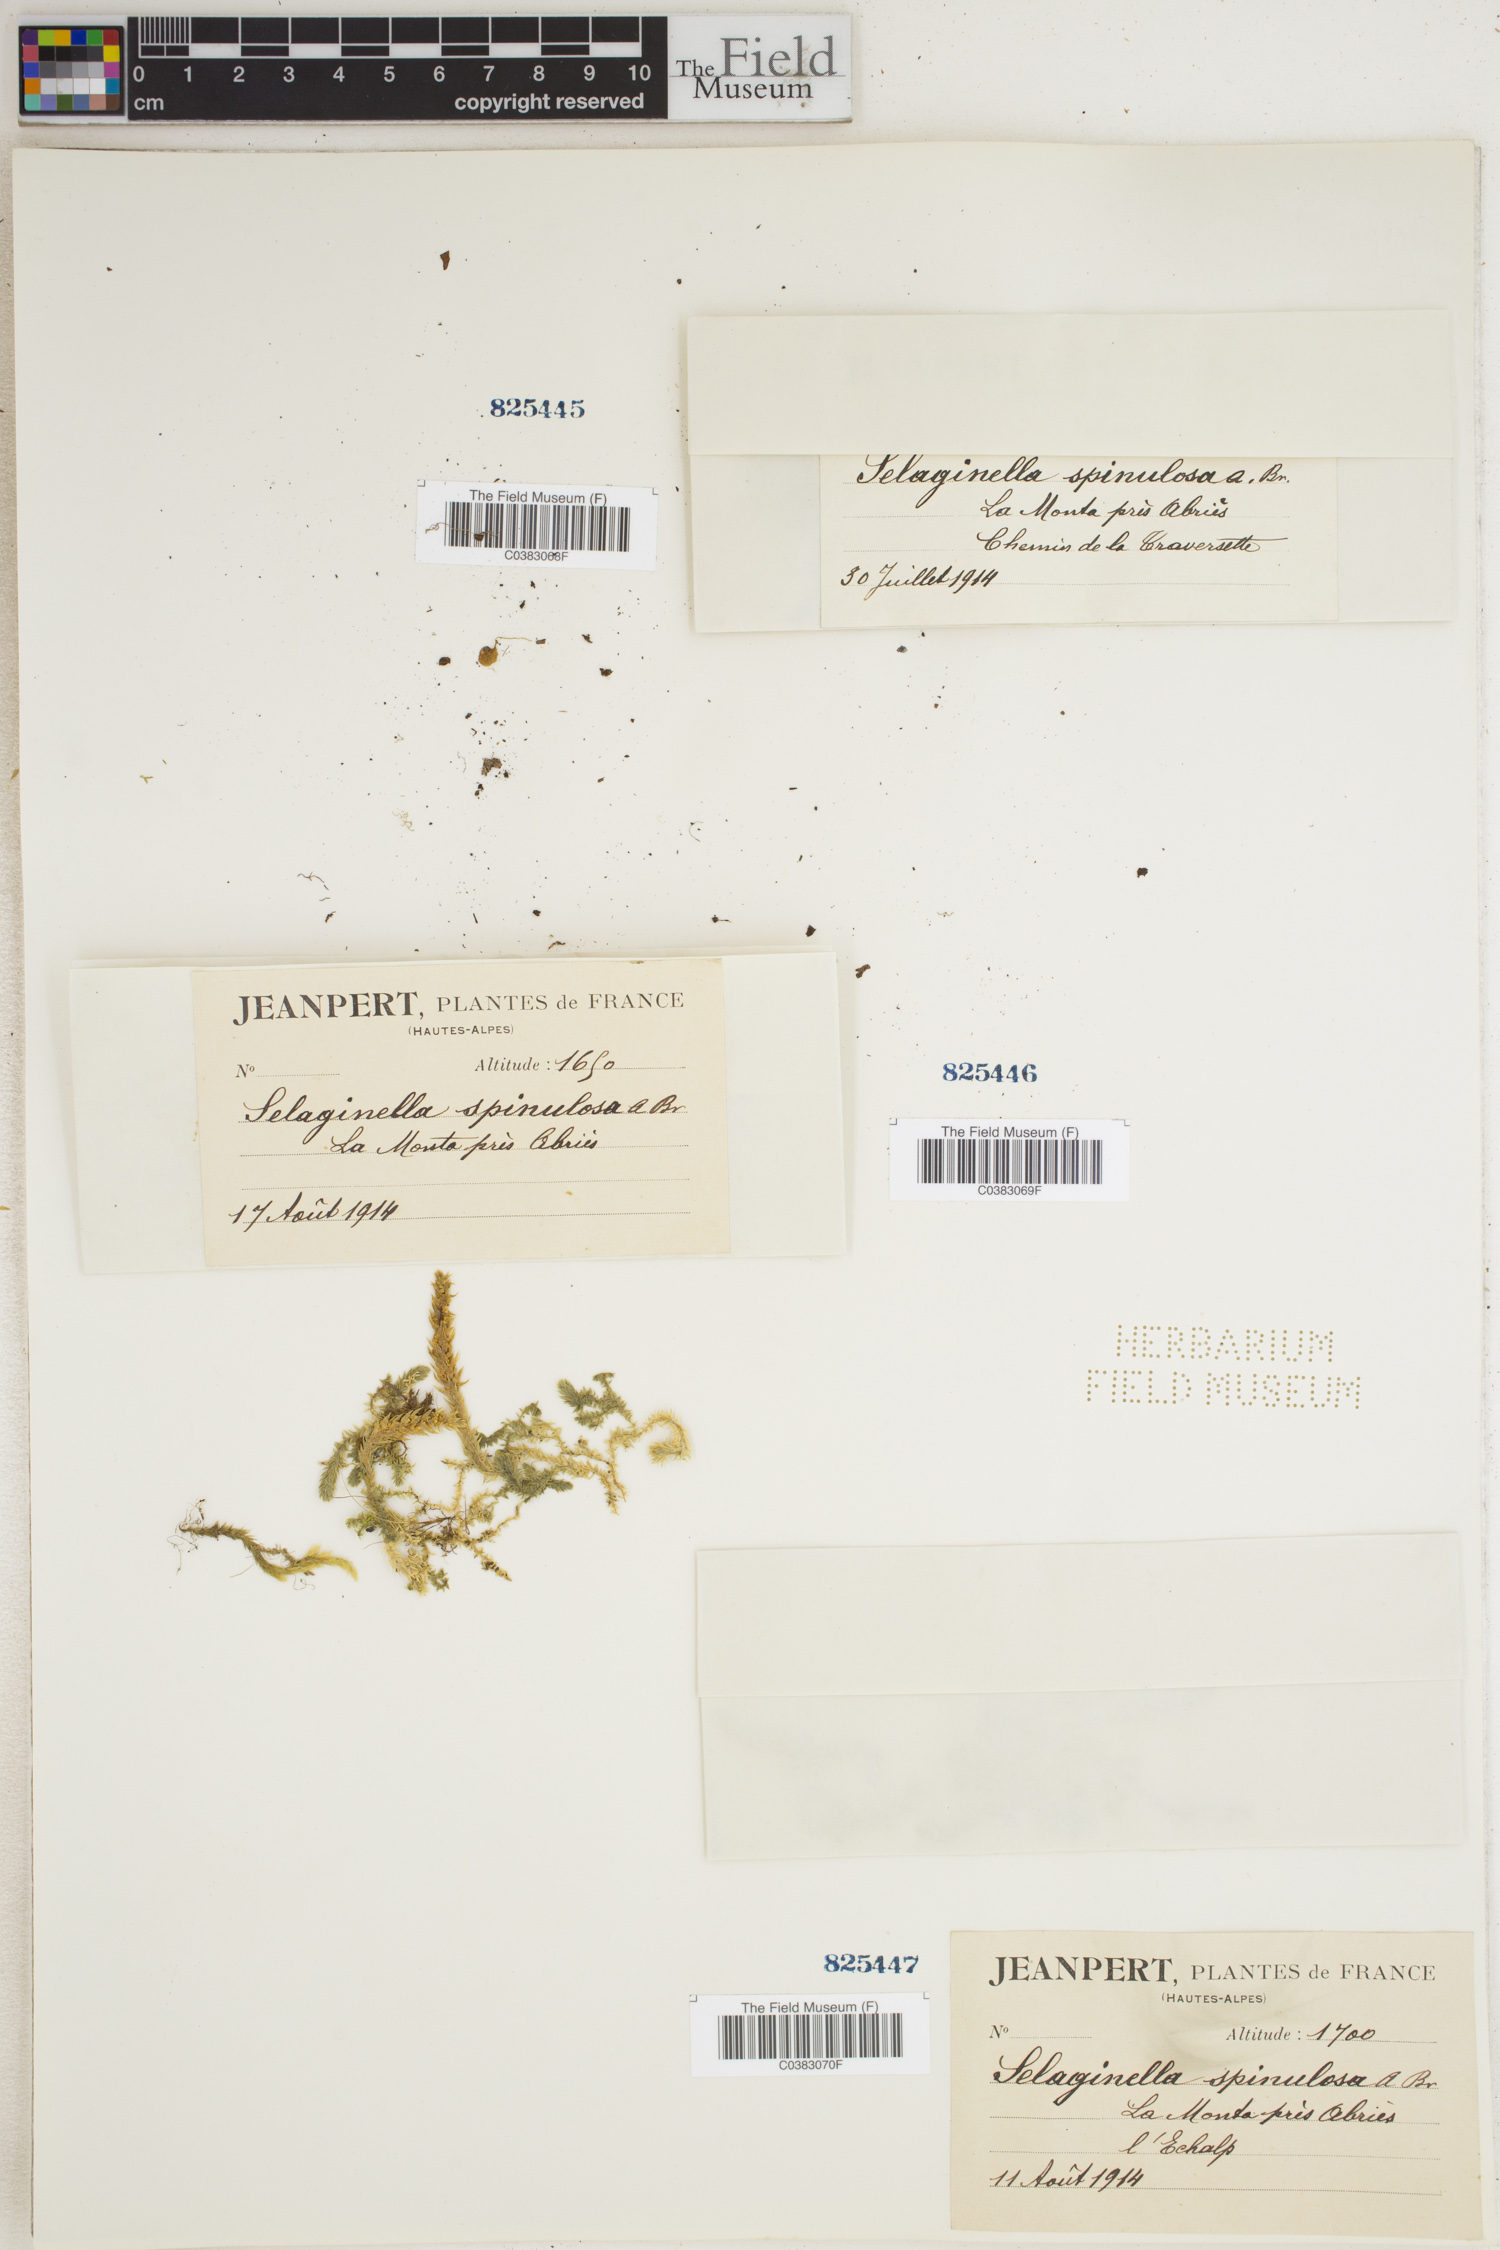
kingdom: Plantae
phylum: Tracheophyta
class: Lycopodiopsida
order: Selaginellales
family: Selaginellaceae
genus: Selaginella
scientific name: Selaginella selaginoides
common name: Prickly mountain-moss
